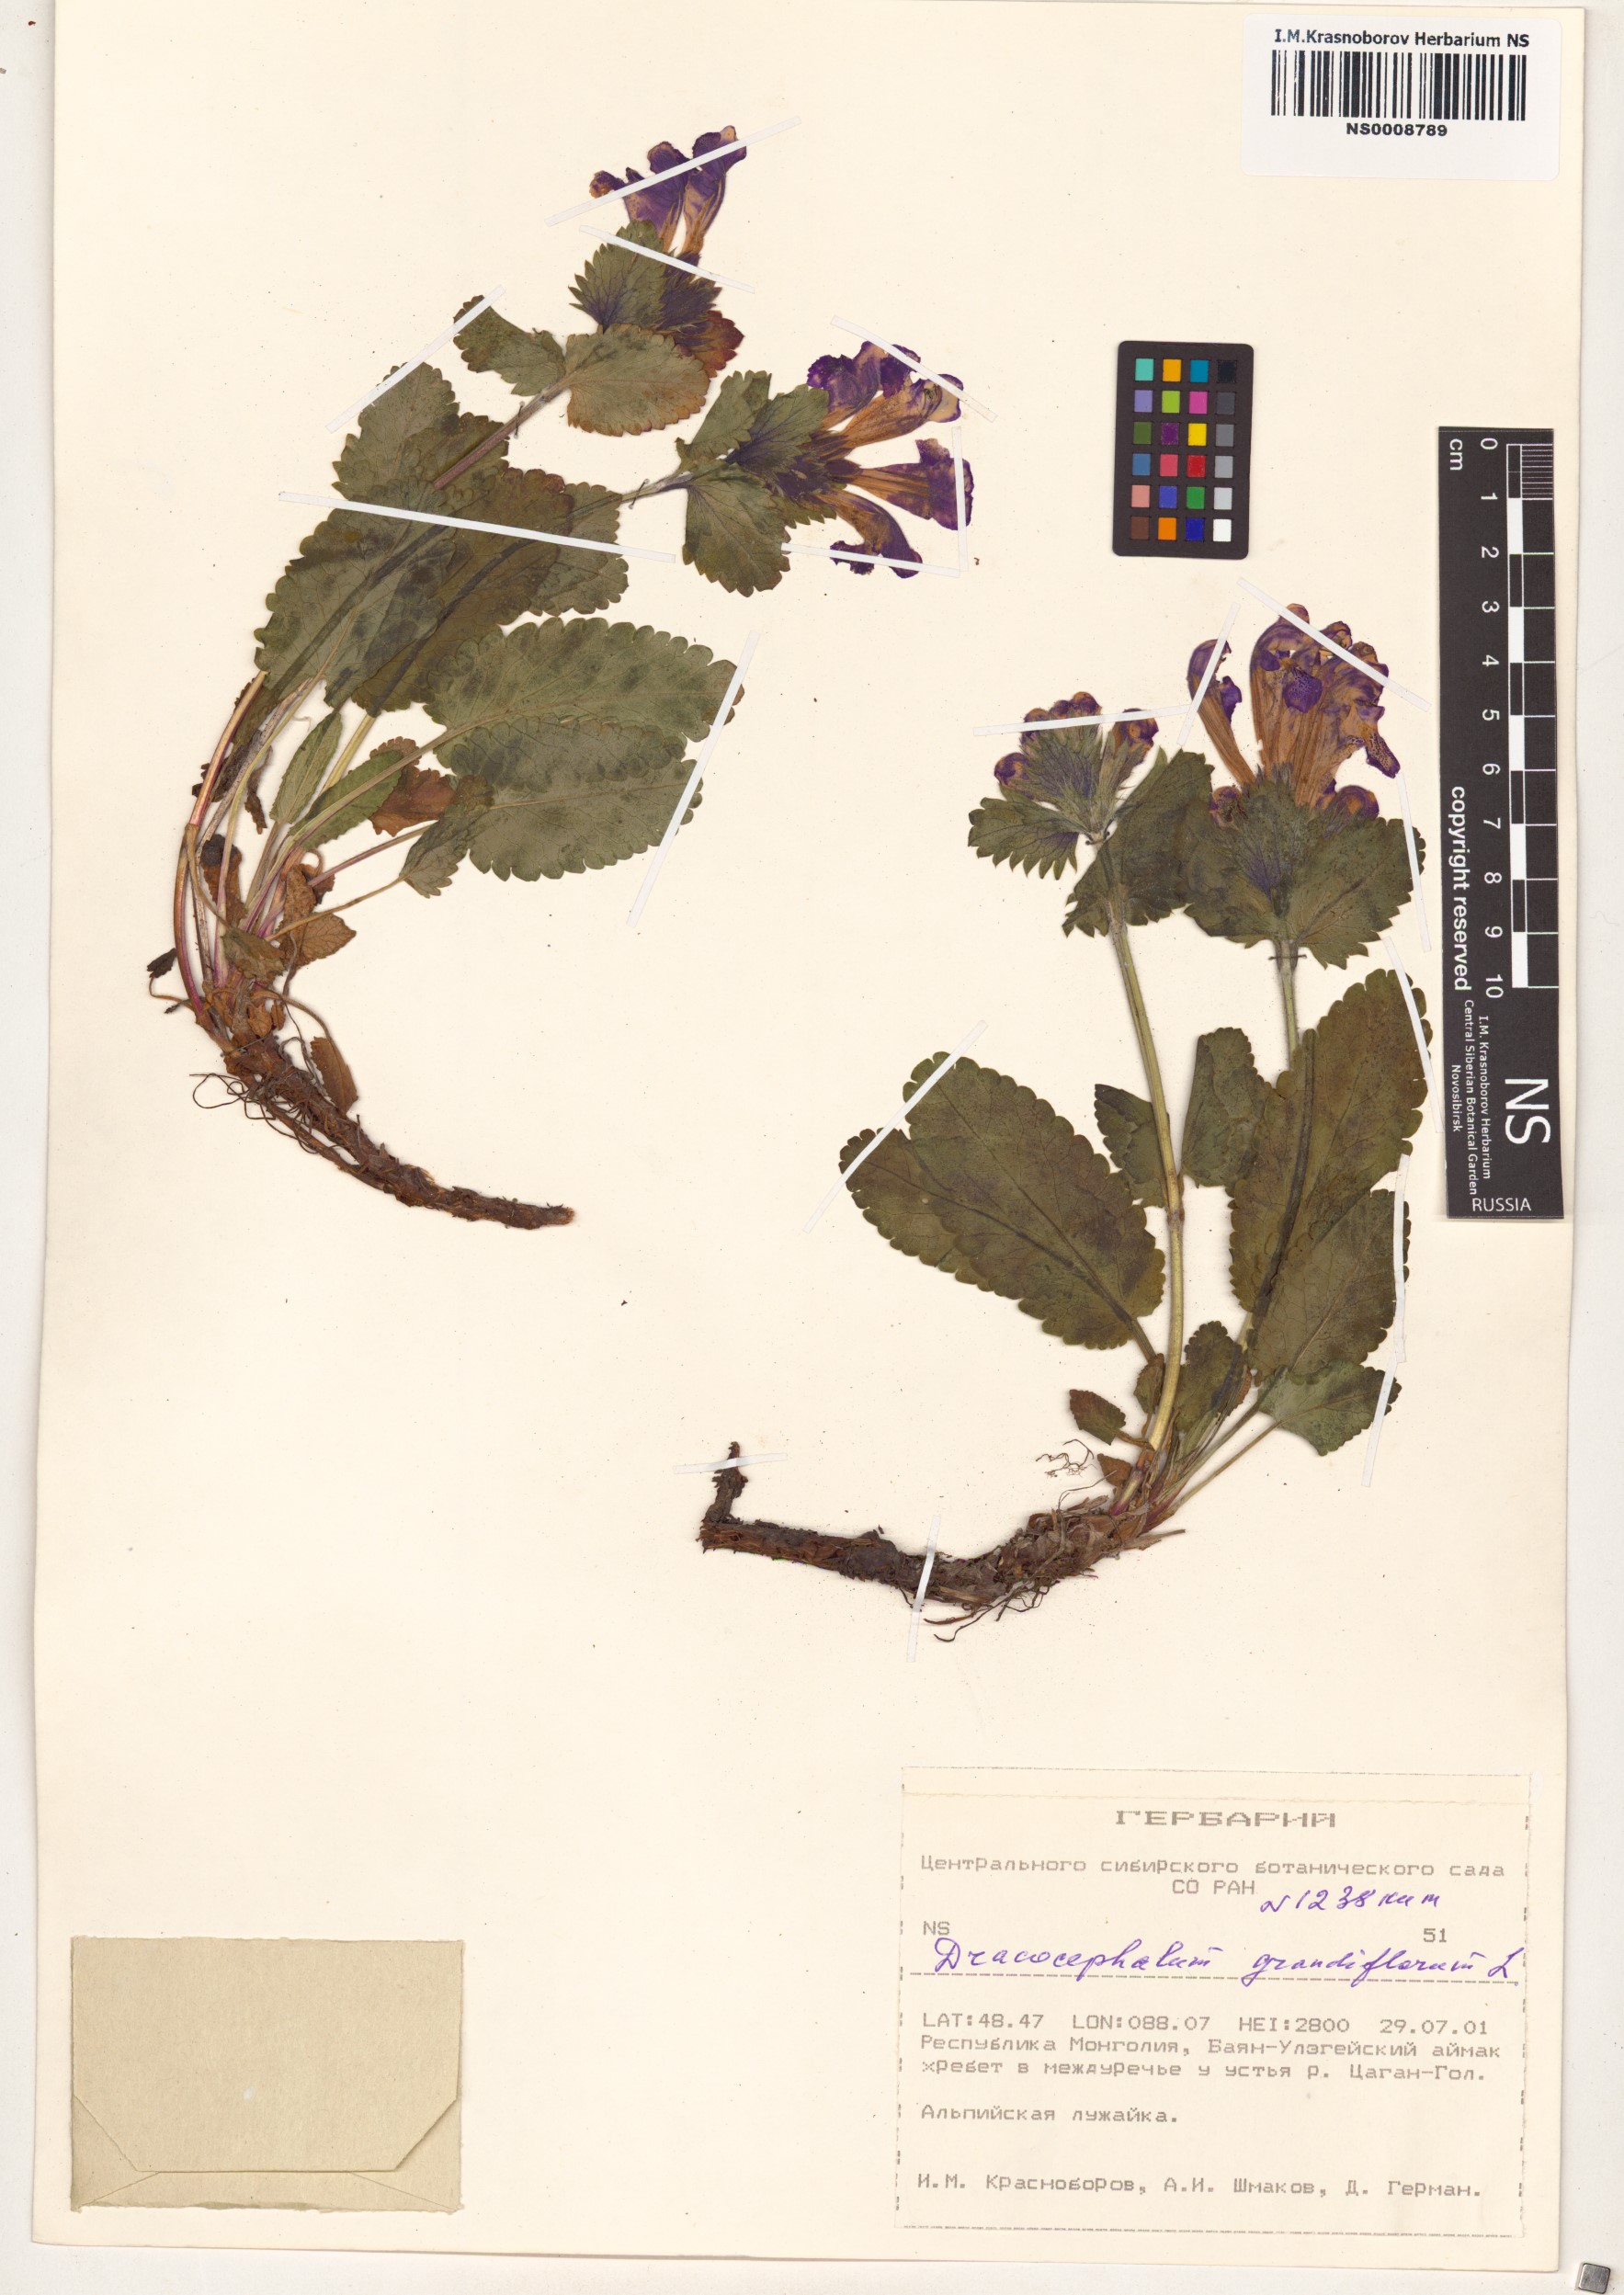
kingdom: Plantae
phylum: Tracheophyta
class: Magnoliopsida
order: Lamiales
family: Lamiaceae
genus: Dracocephalum
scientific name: Dracocephalum grandiflorum
